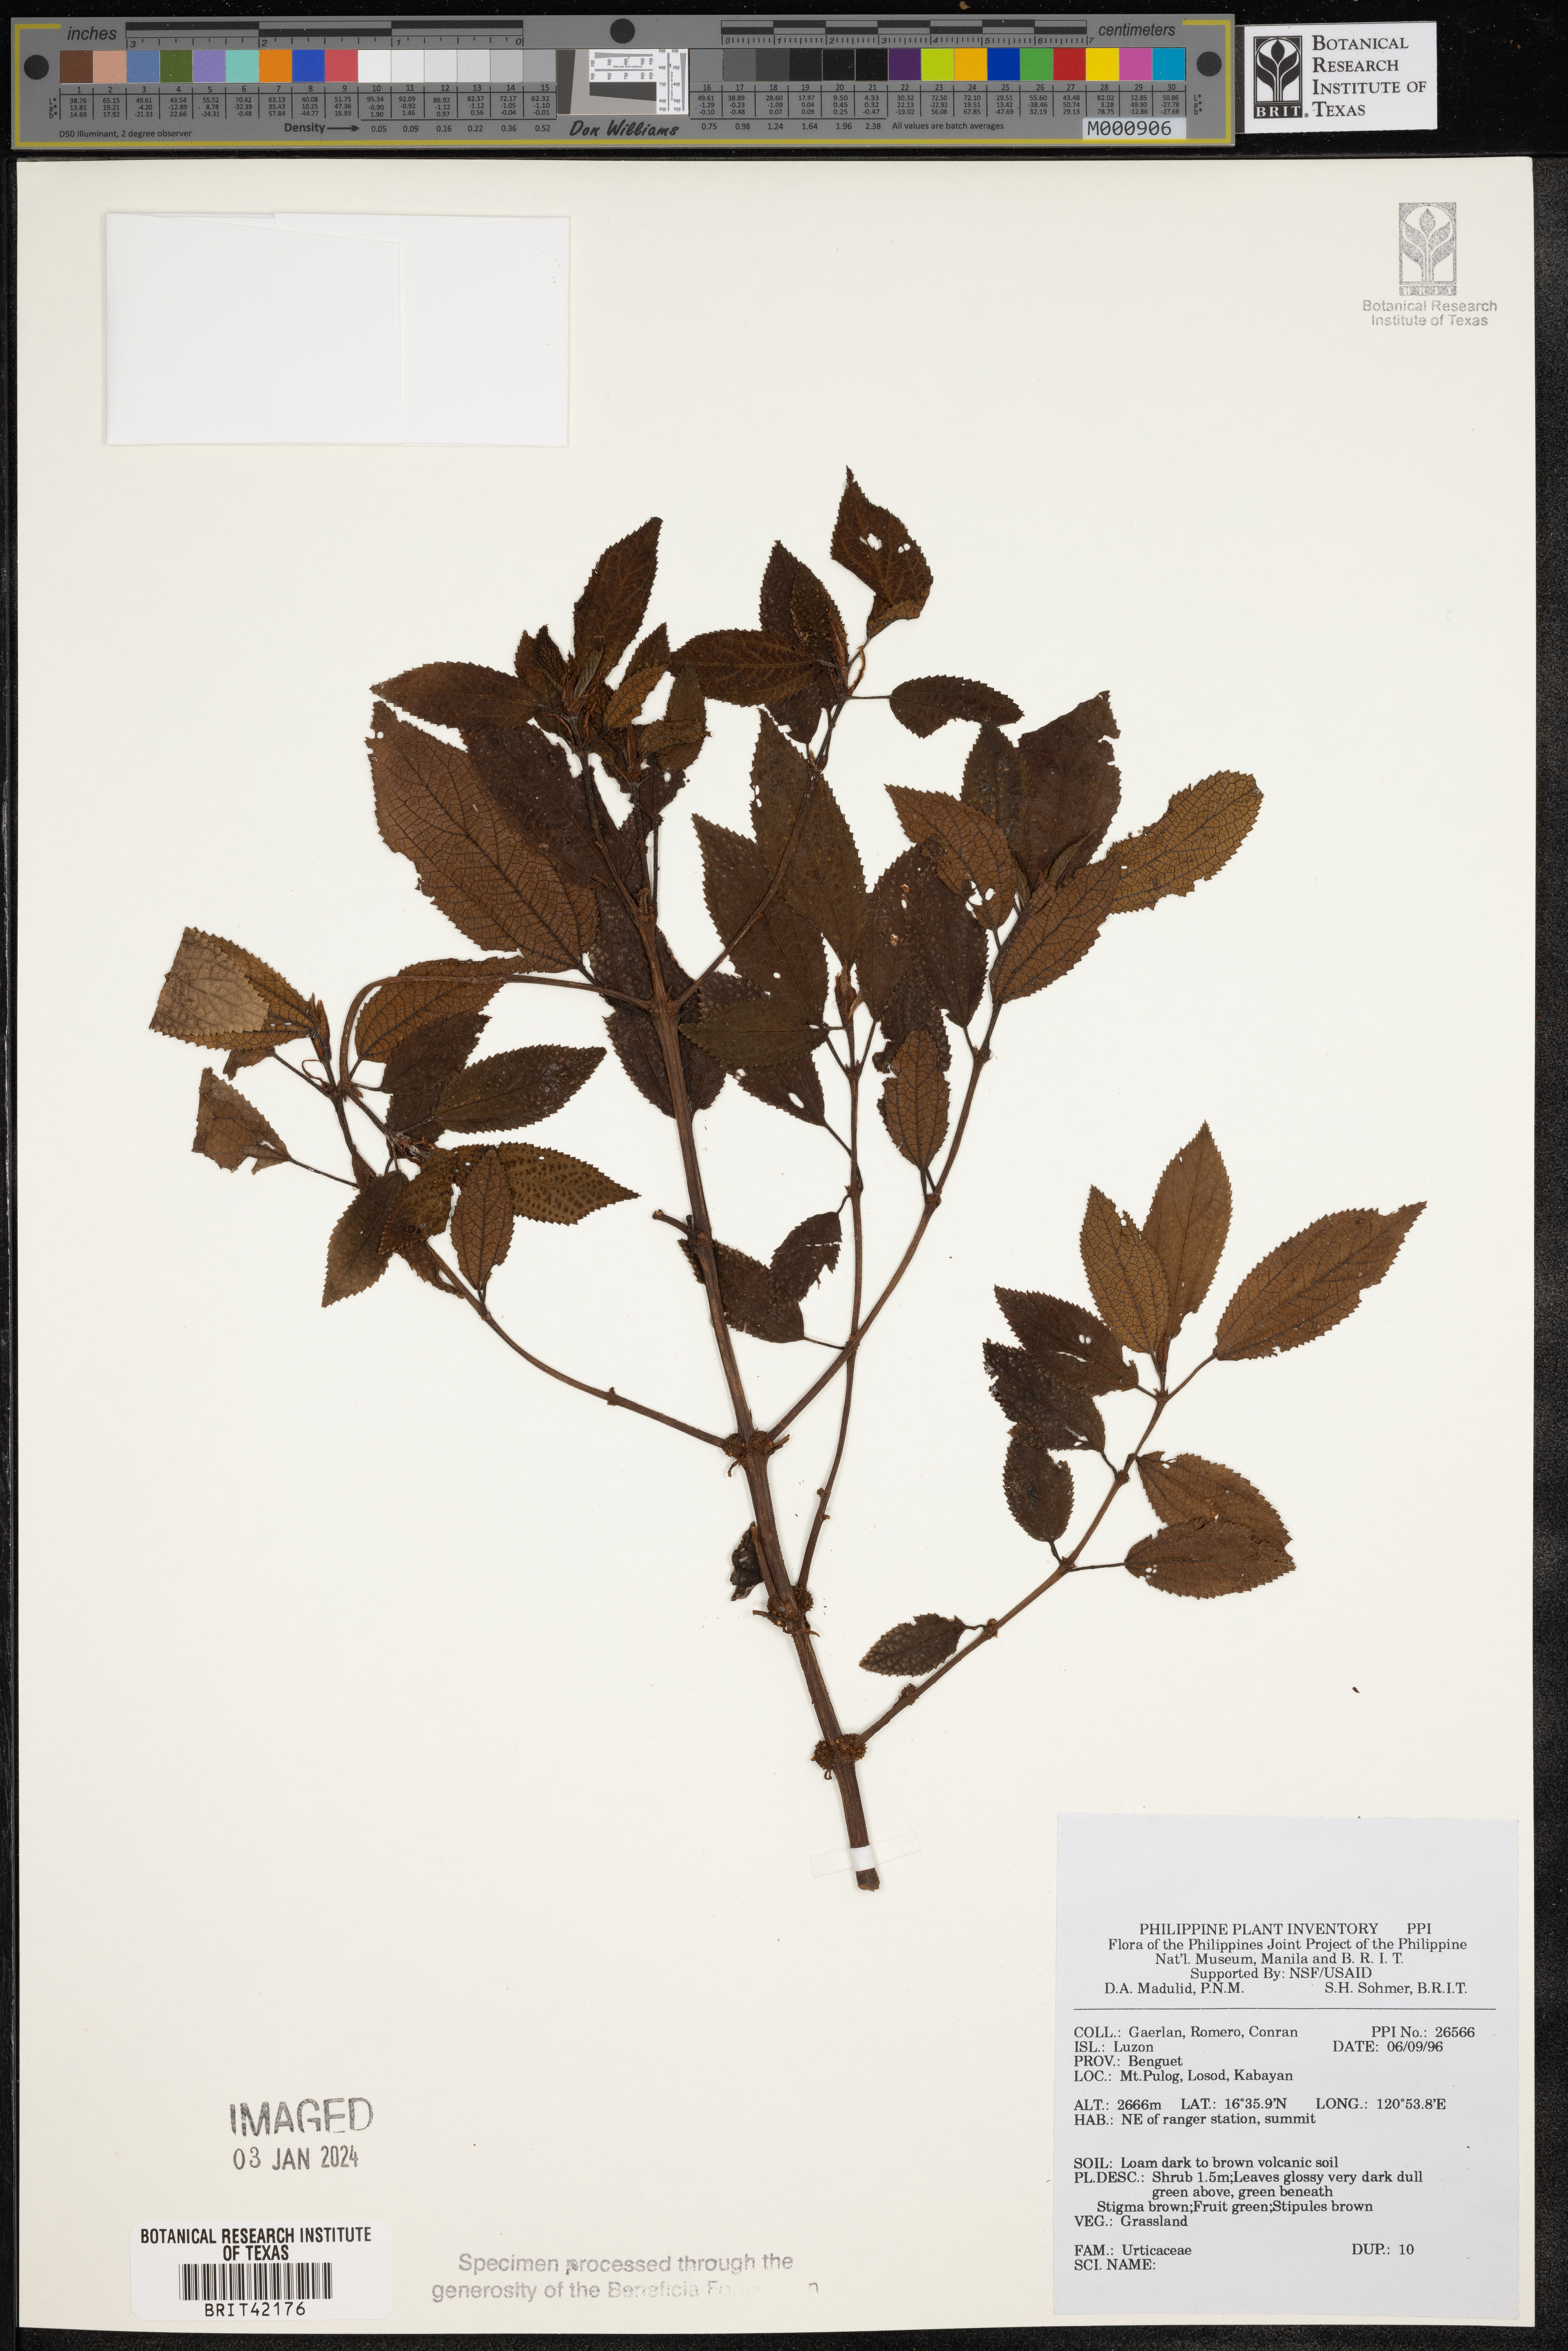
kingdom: Plantae
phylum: Tracheophyta
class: Magnoliopsida
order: Rosales
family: Urticaceae
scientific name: Urticaceae
